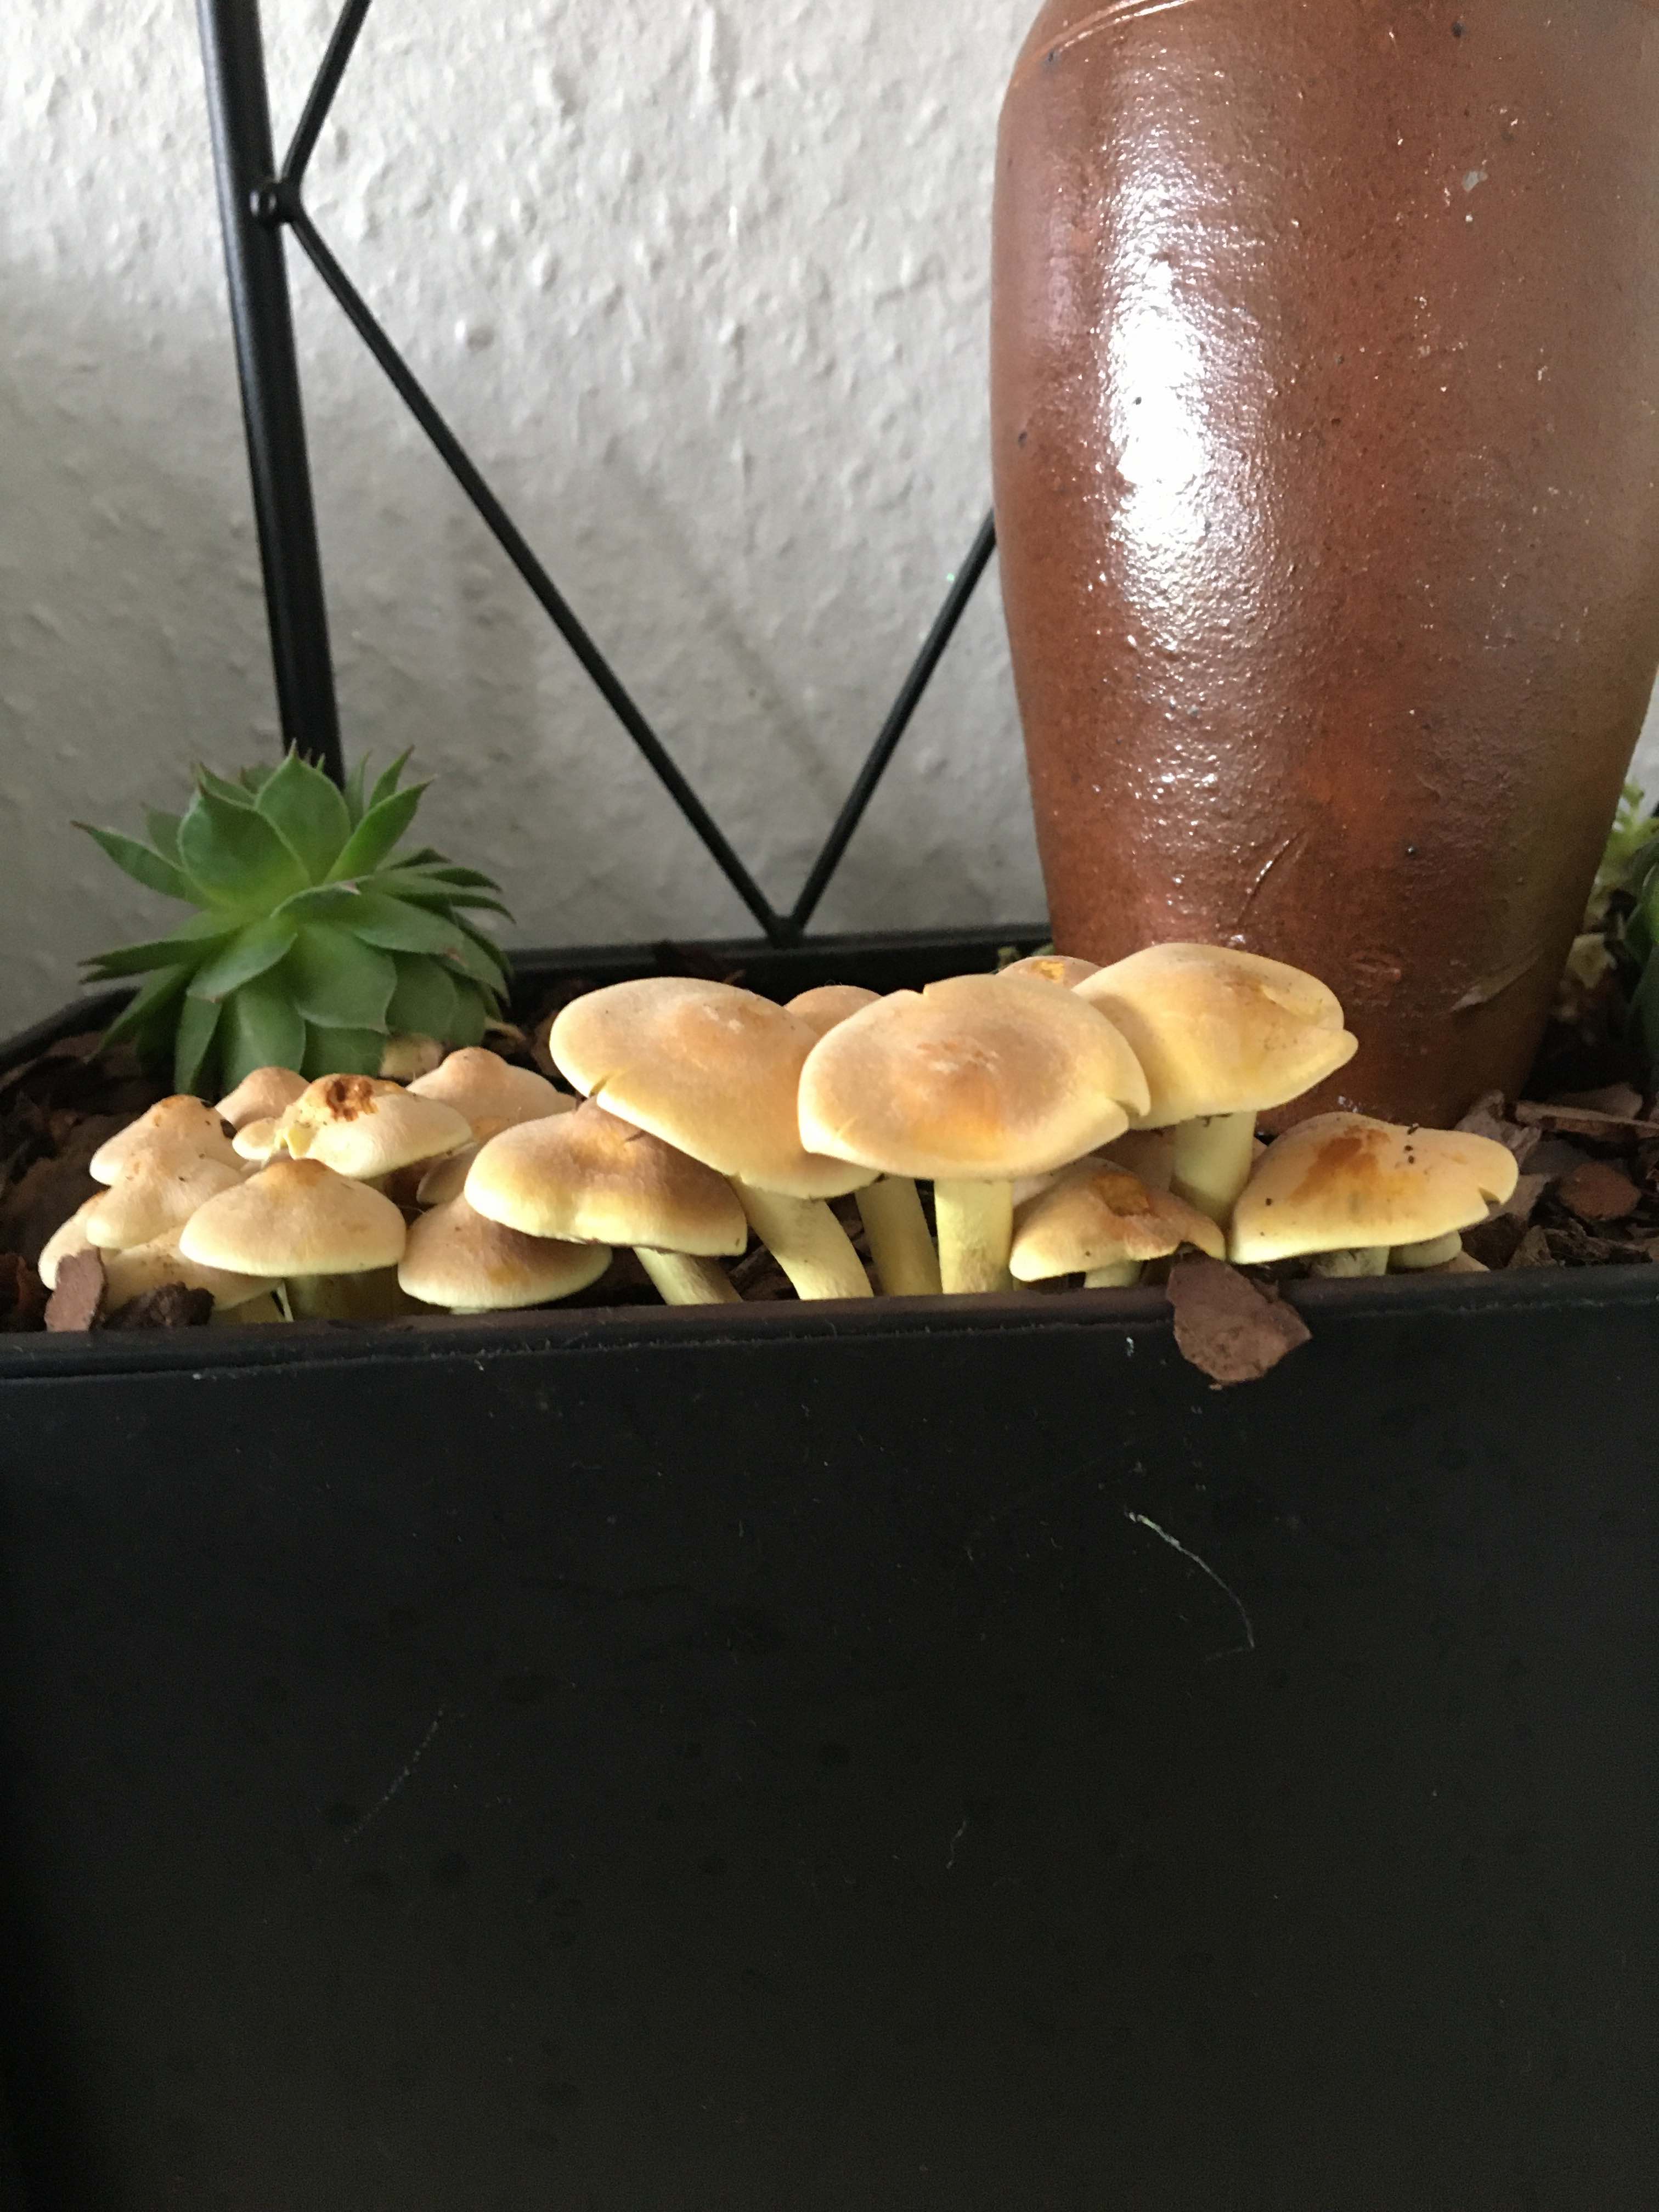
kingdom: Fungi
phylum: Basidiomycota
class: Agaricomycetes
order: Agaricales
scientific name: Agaricales
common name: champignonordenen
